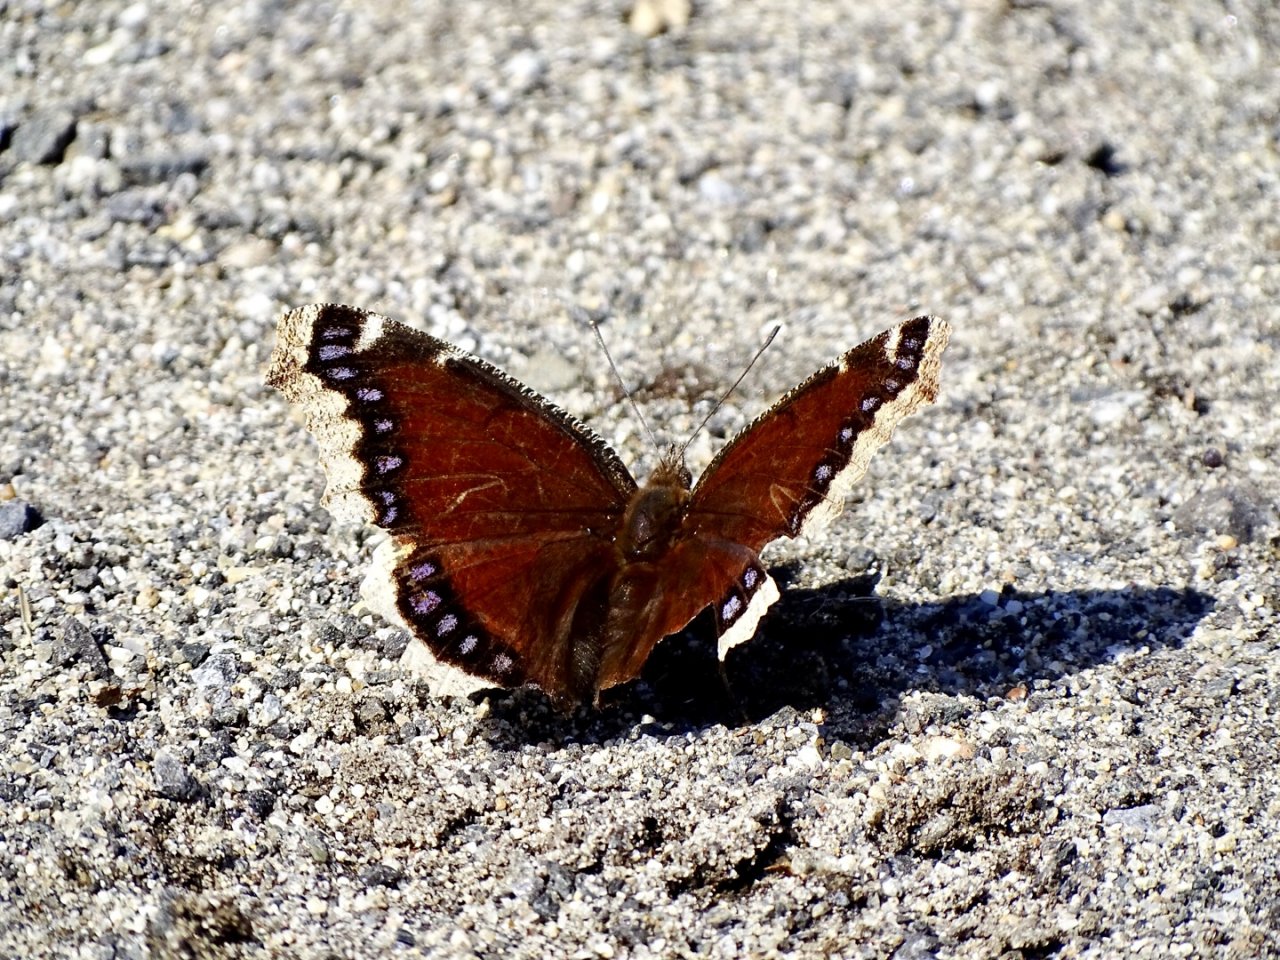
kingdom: Animalia
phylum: Arthropoda
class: Insecta
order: Lepidoptera
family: Nymphalidae
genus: Nymphalis
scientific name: Nymphalis antiopa
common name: Mourning Cloak
